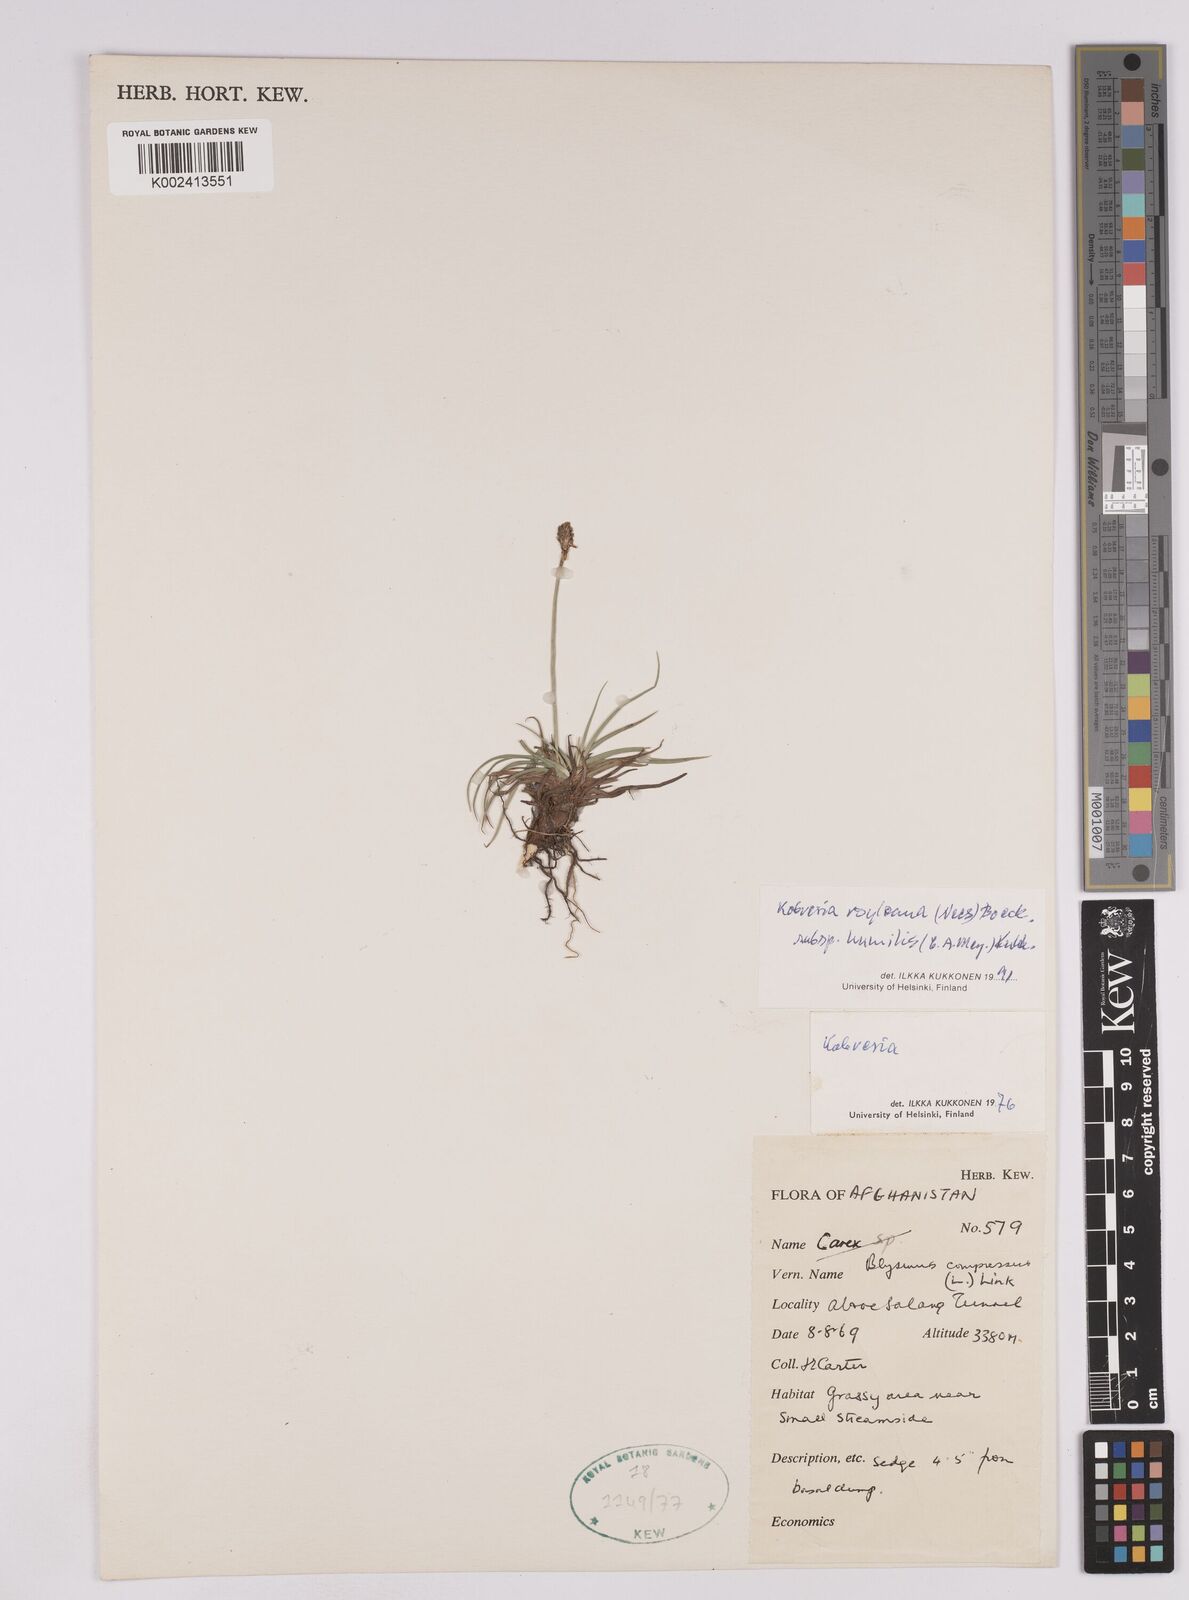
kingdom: Plantae
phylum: Tracheophyta
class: Liliopsida
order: Poales
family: Cyperaceae
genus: Carex
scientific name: Carex alatauensis
